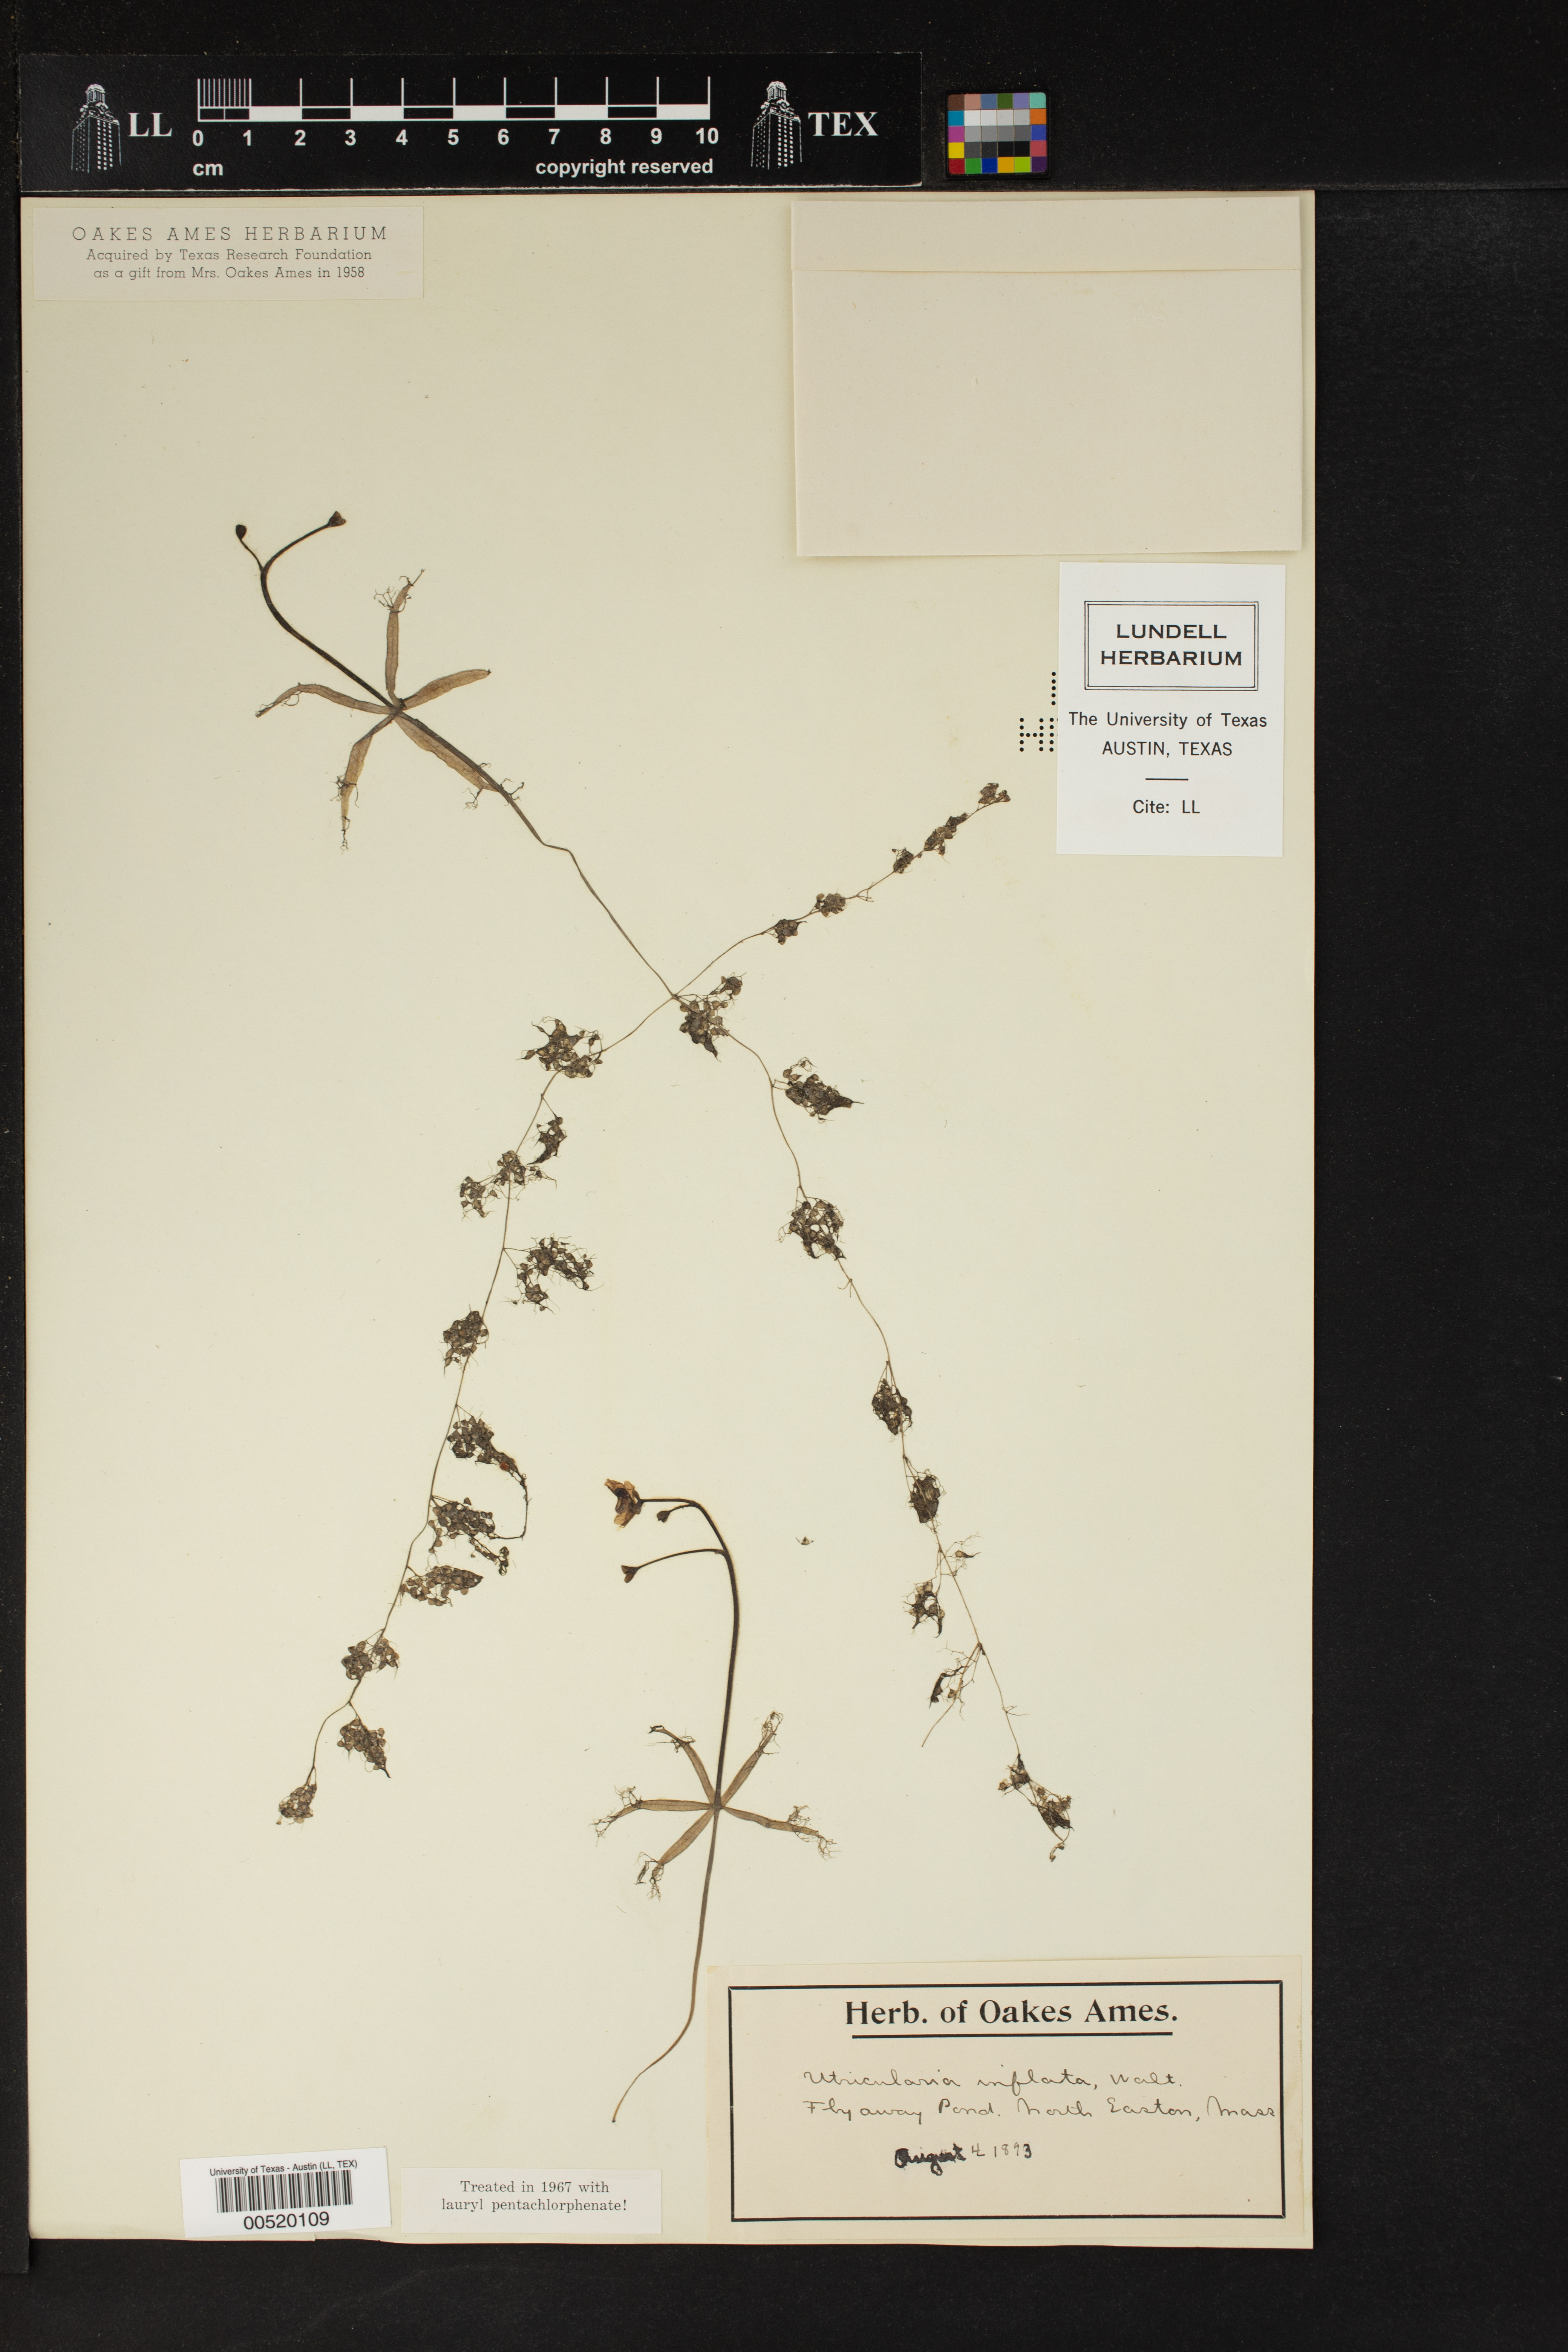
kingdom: Plantae
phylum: Tracheophyta
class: Magnoliopsida
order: Lamiales
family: Lentibulariaceae
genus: Utricularia
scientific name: Utricularia inflata
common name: Floating bladderwort
